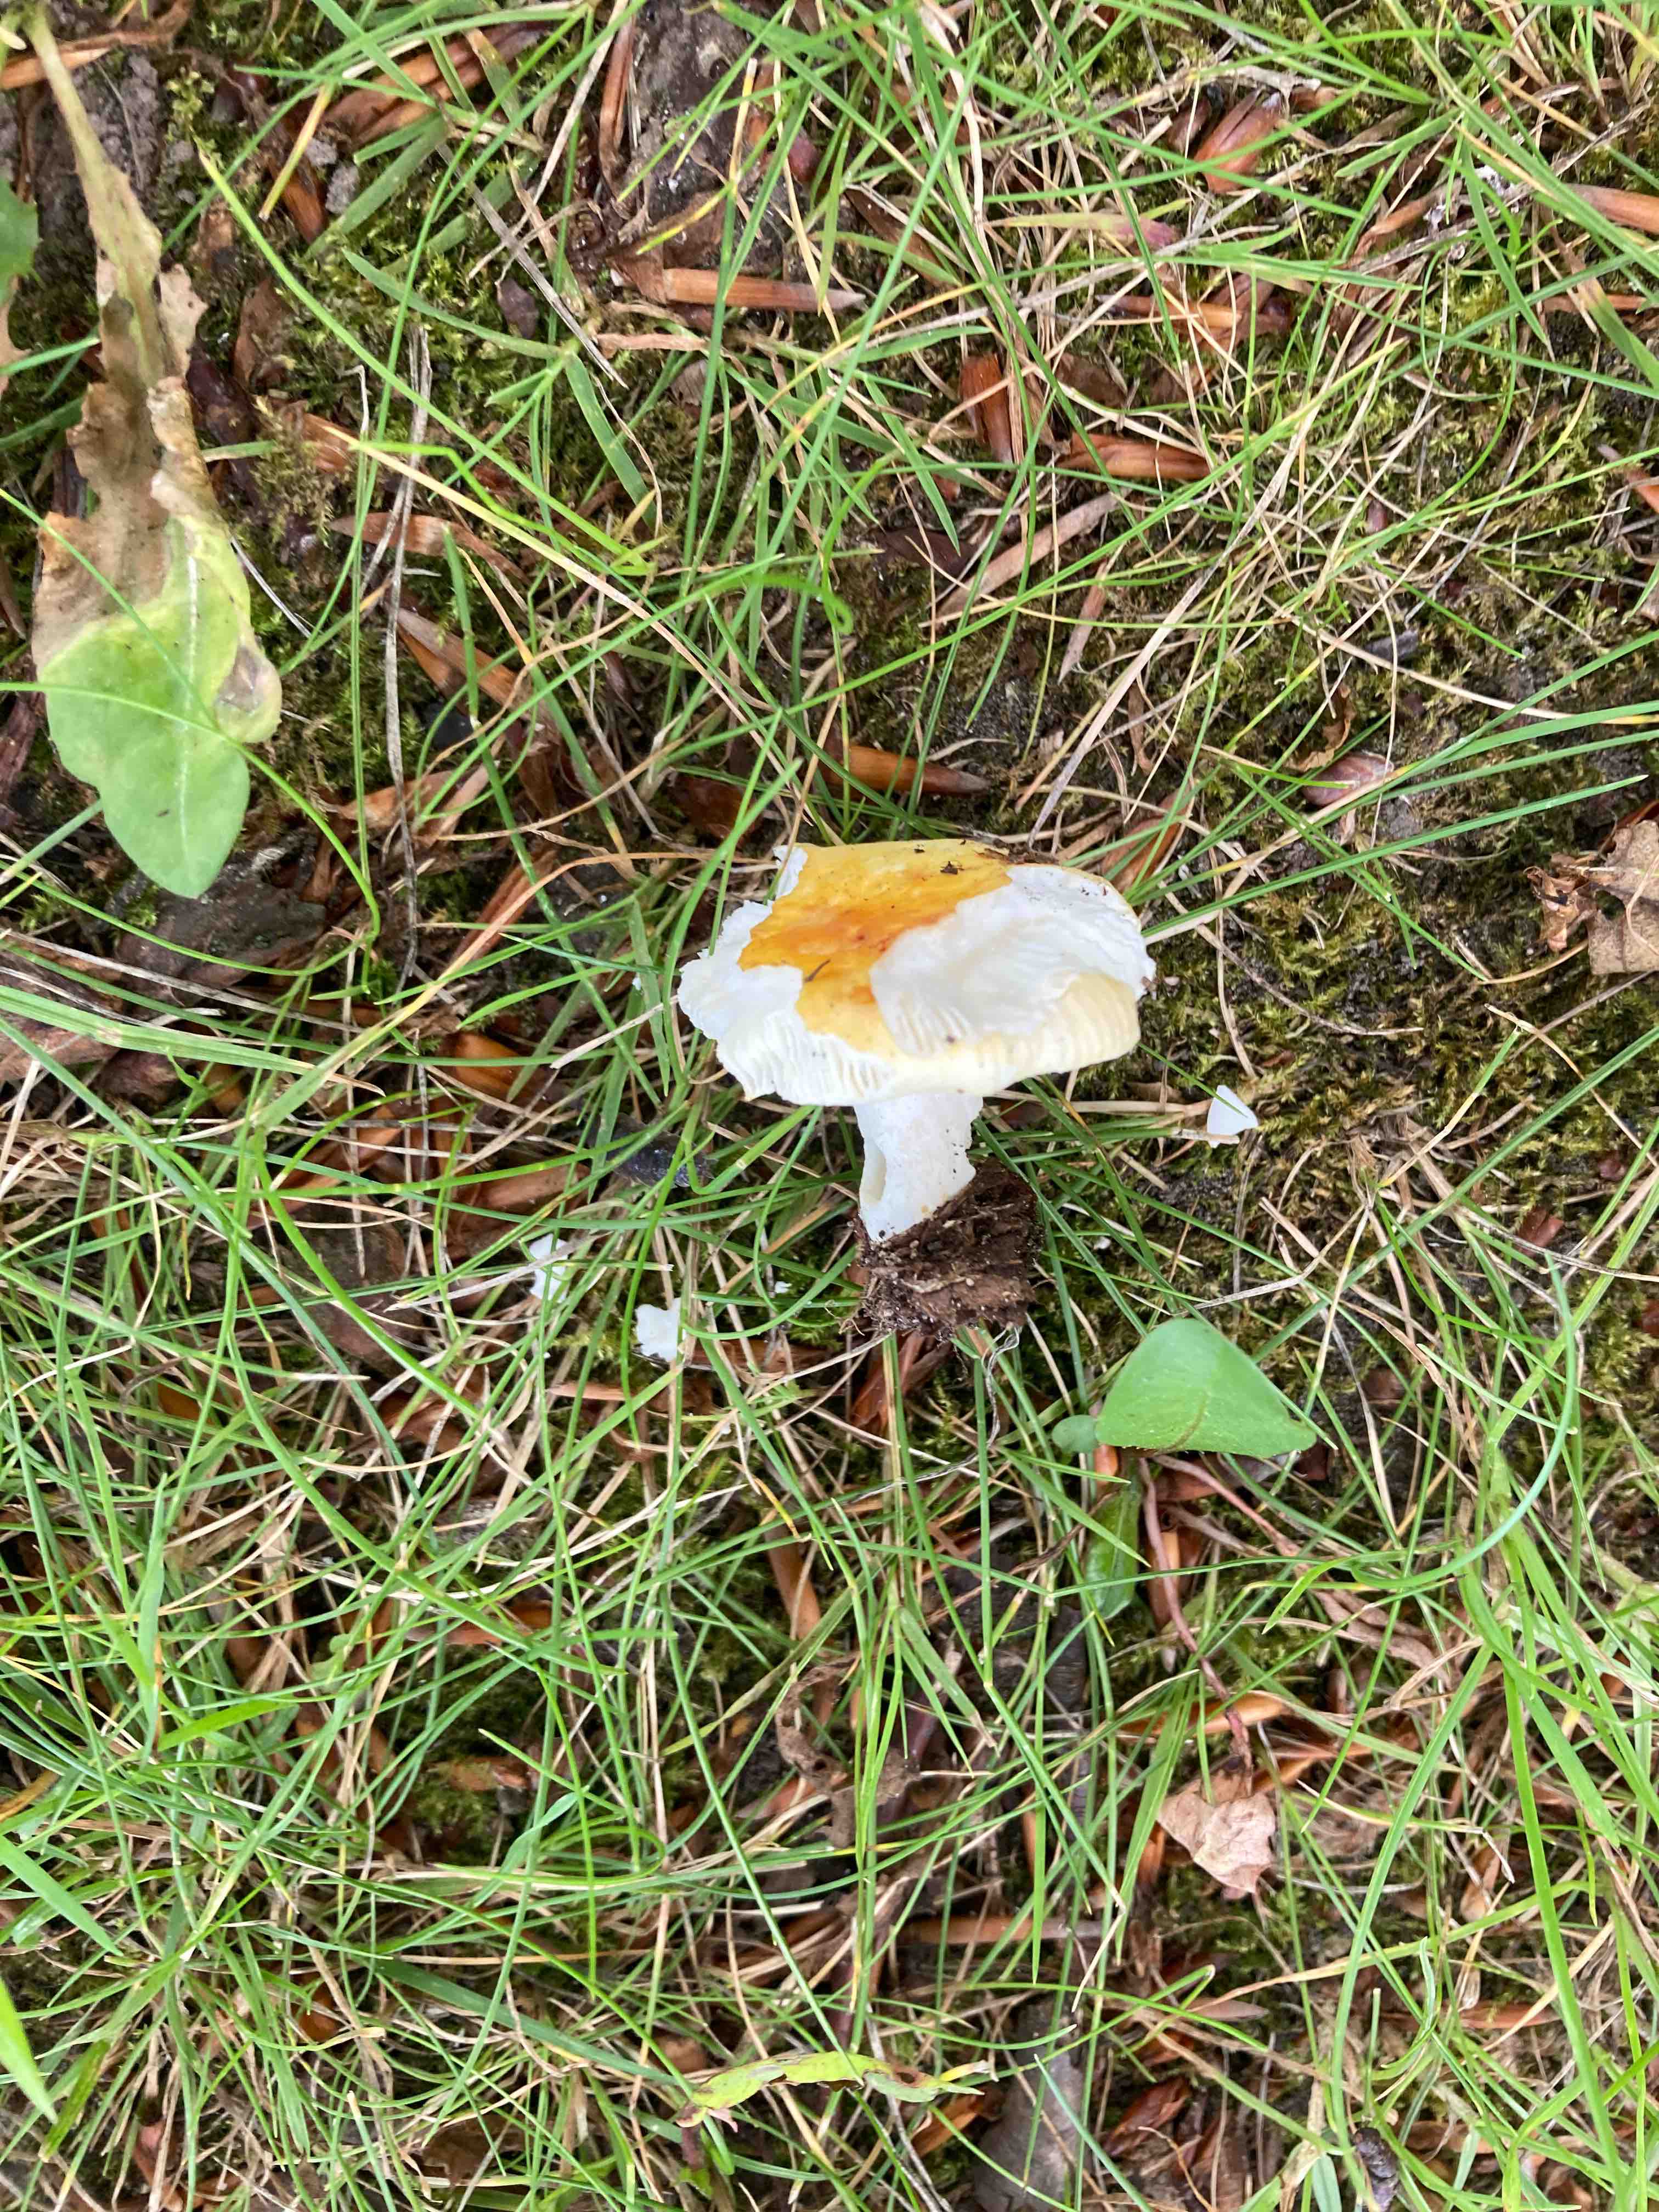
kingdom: Fungi
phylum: Basidiomycota
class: Agaricomycetes
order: Russulales
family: Russulaceae
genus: Russula
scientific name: Russula solaris
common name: sol-skørhat
